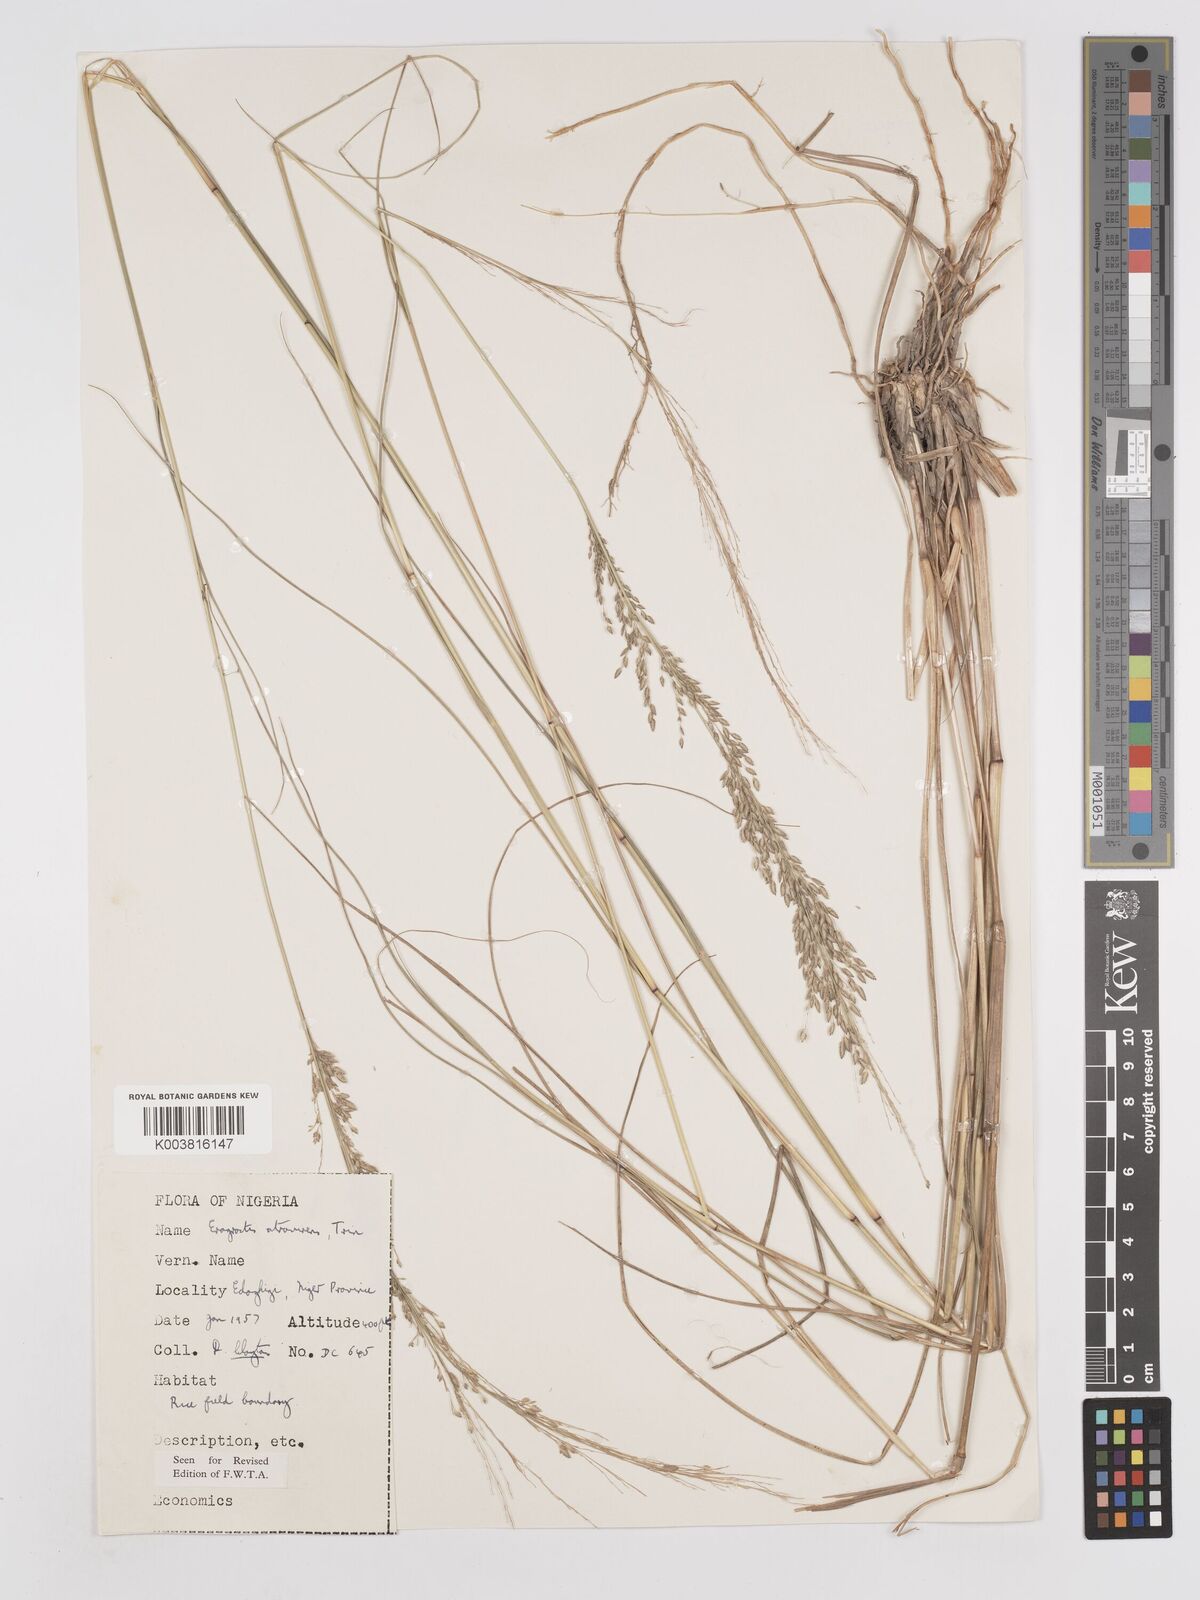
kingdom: Plantae
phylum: Tracheophyta
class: Liliopsida
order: Poales
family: Poaceae
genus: Eragrostis
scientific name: Eragrostis atrovirens
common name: Thalia lovegrass
